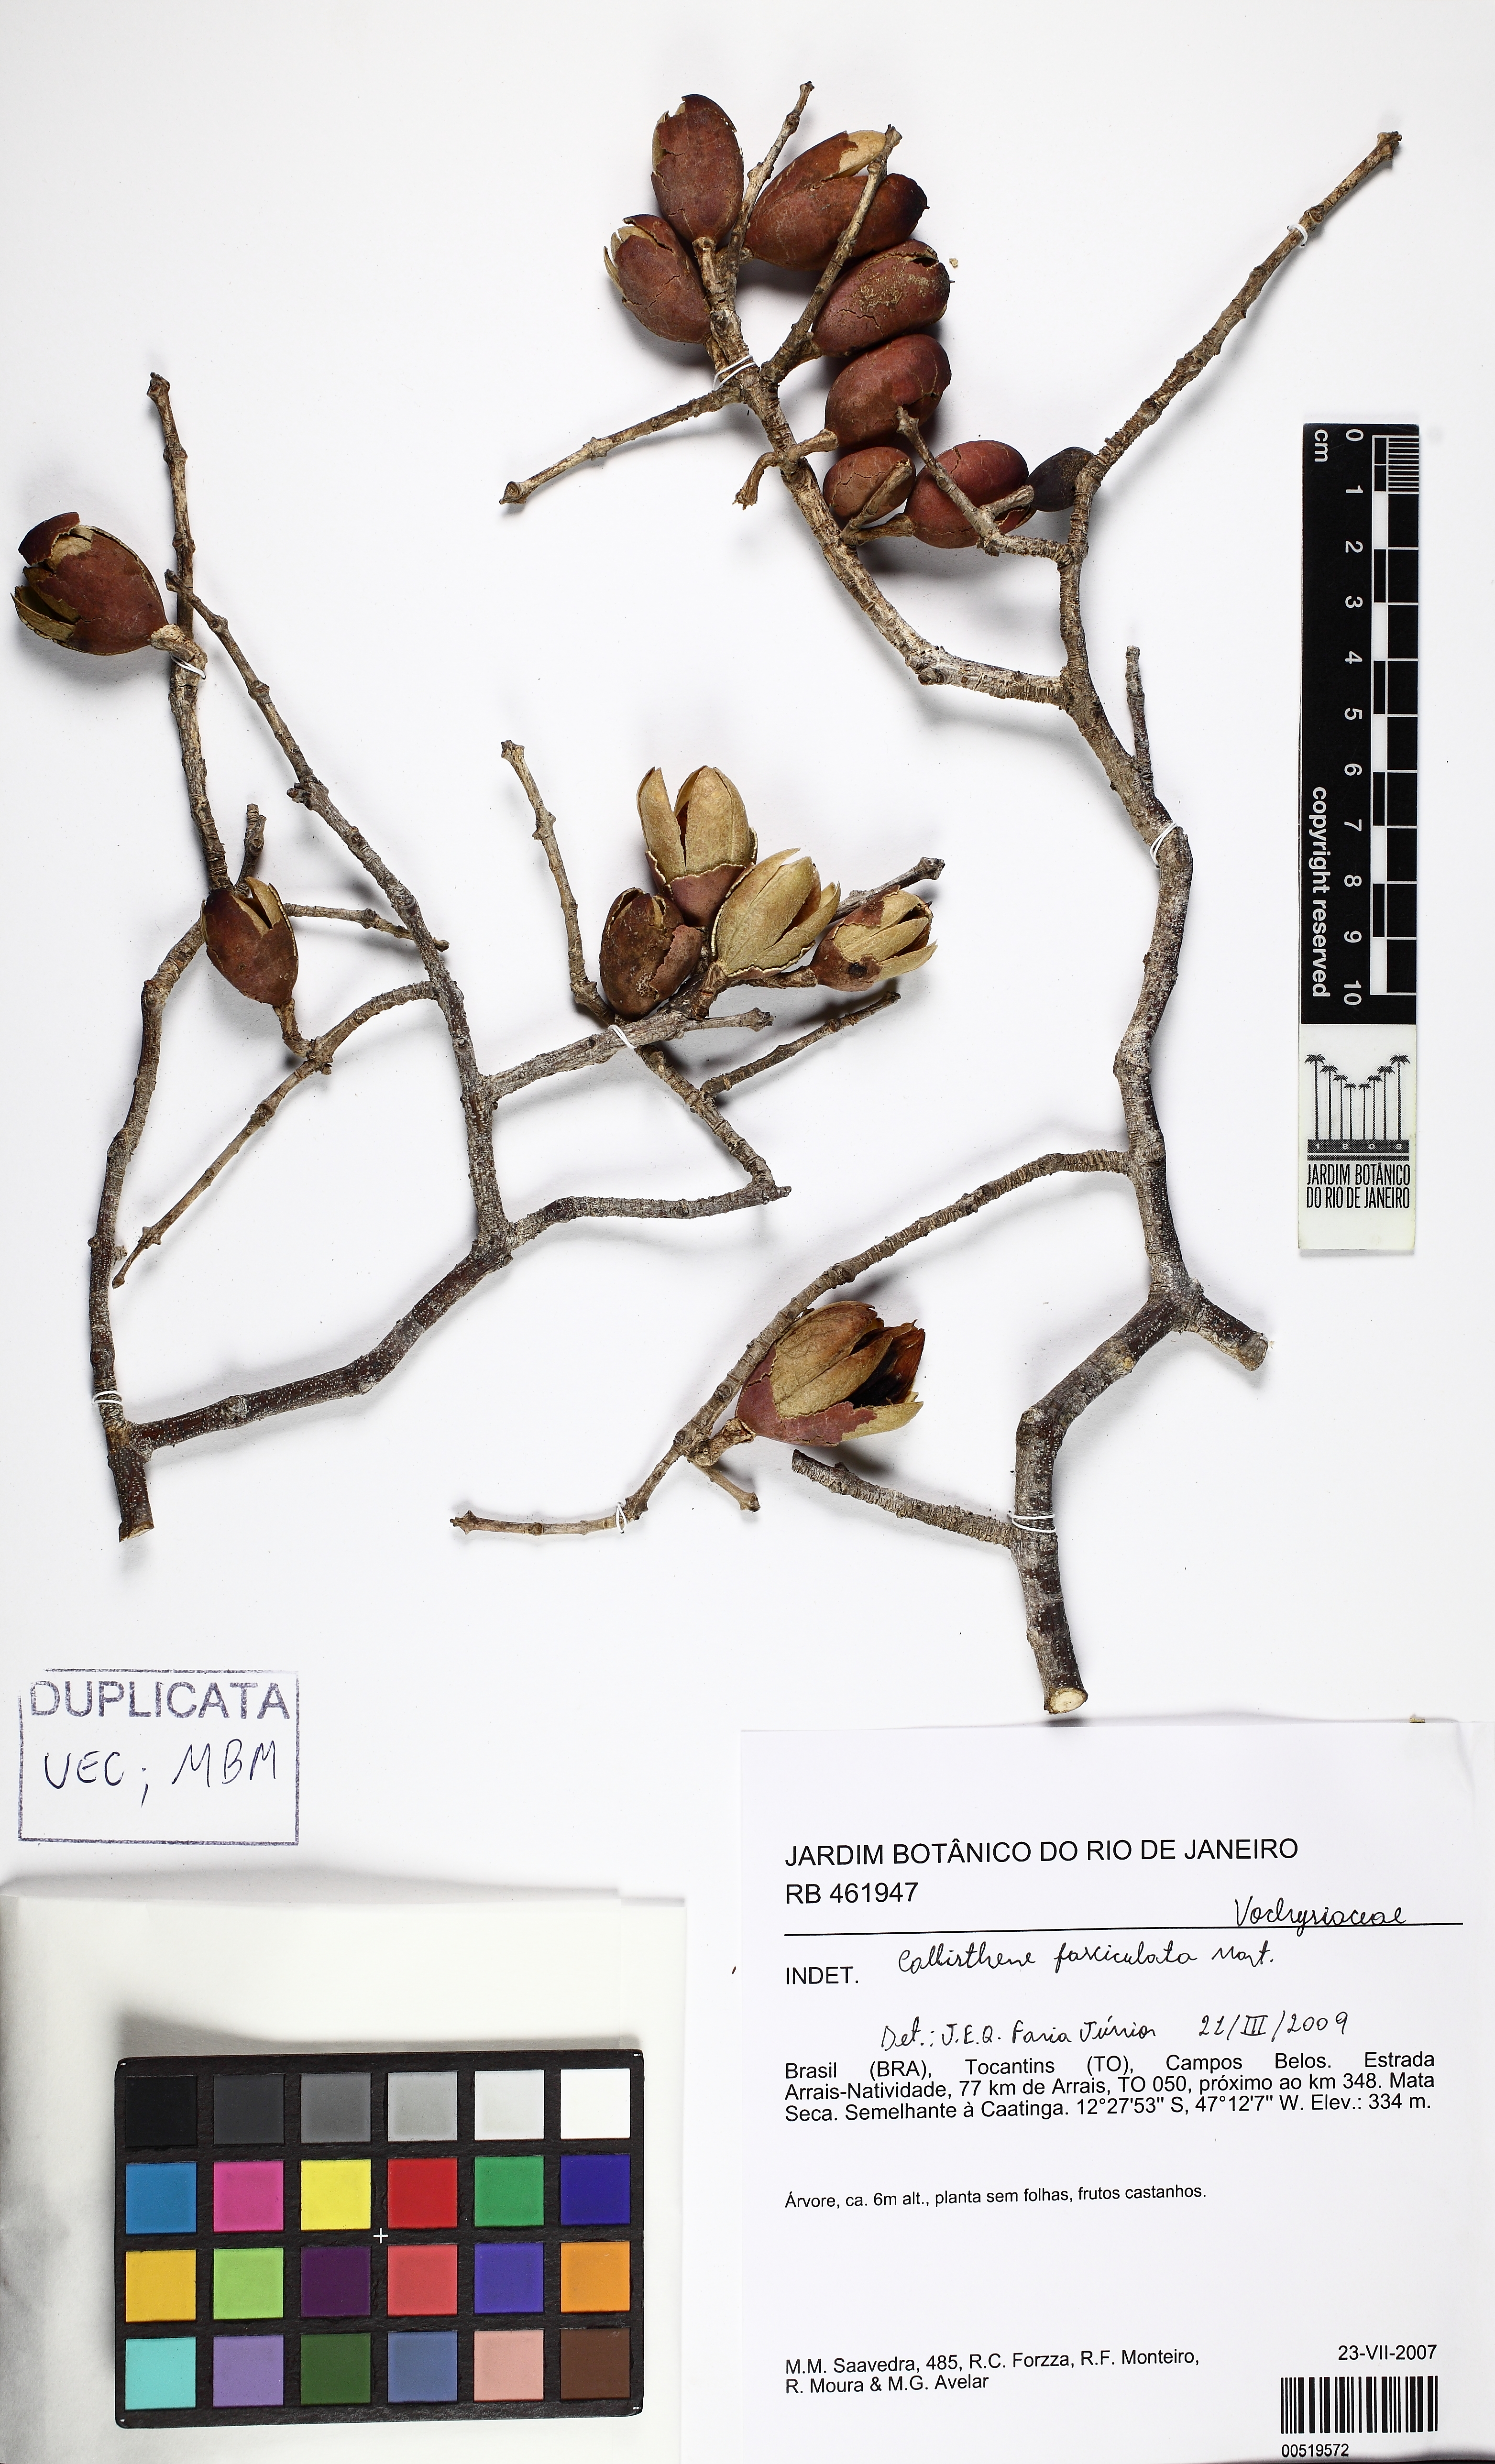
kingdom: Plantae
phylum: Tracheophyta
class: Magnoliopsida
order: Myrtales
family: Vochysiaceae
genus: Callisthene
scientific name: Callisthene fasciculata
